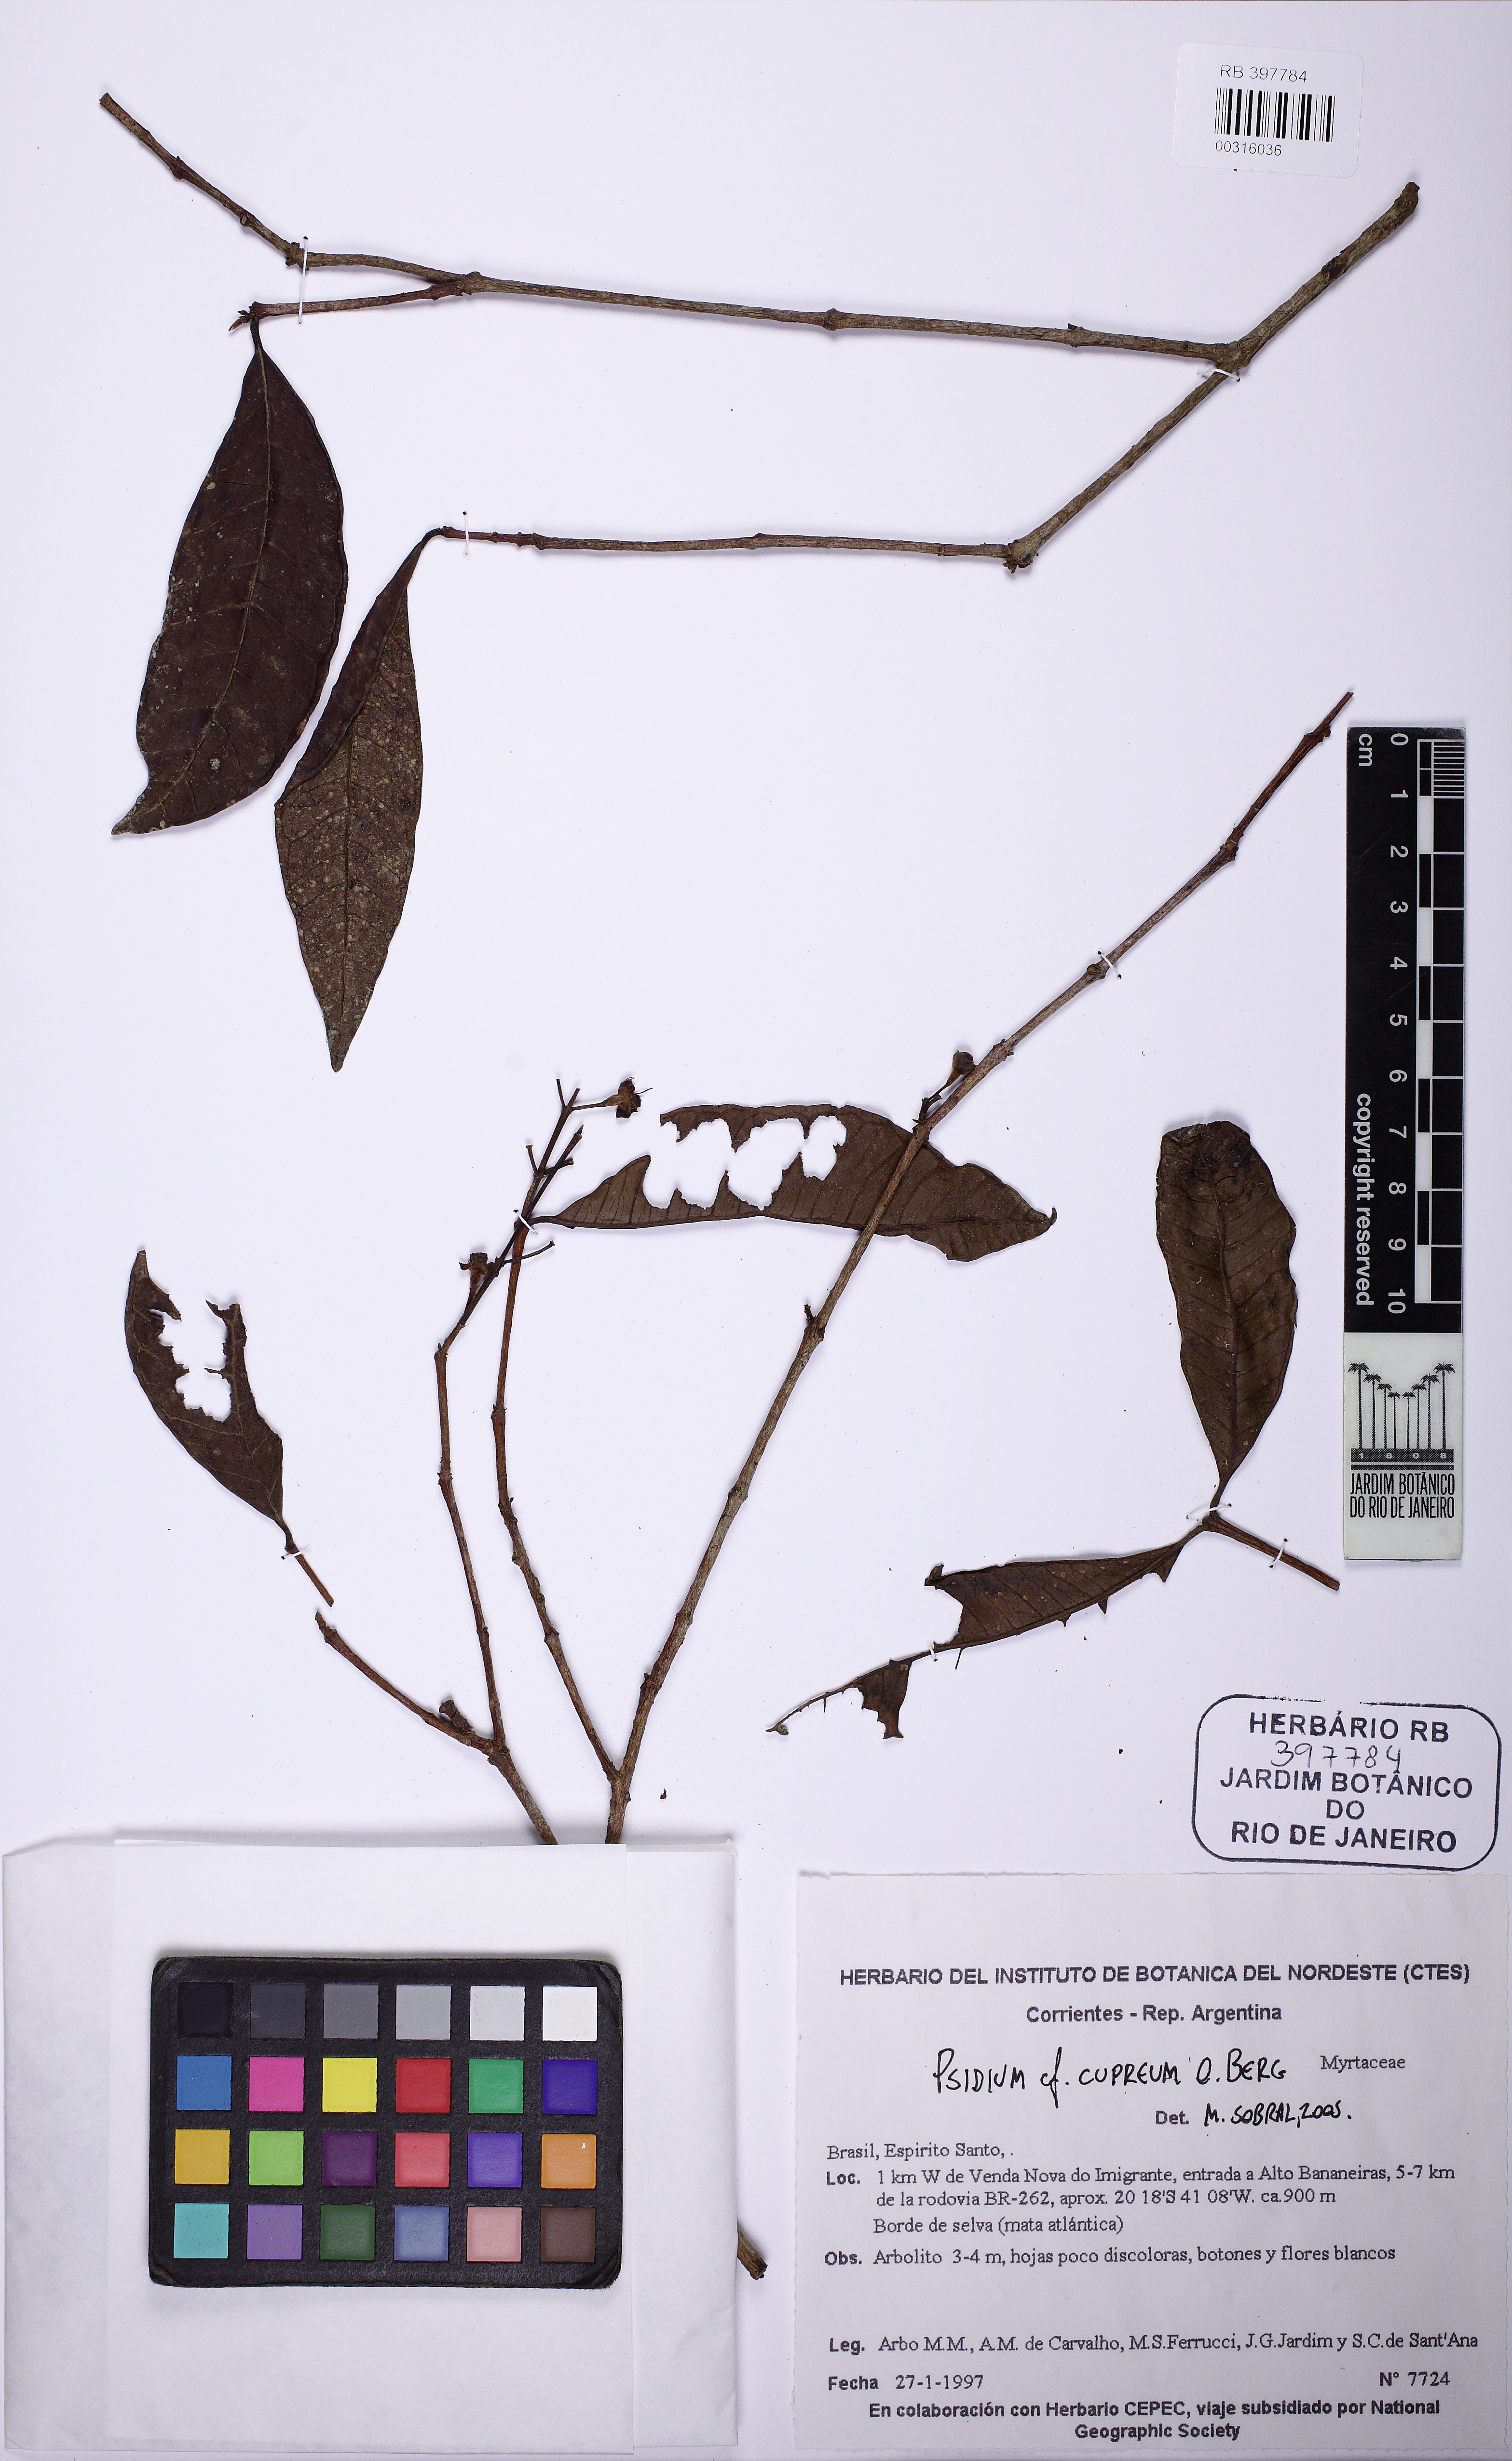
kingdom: Plantae
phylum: Tracheophyta
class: Magnoliopsida
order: Myrtales
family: Myrtaceae
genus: Psidium
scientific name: Psidium rufum
